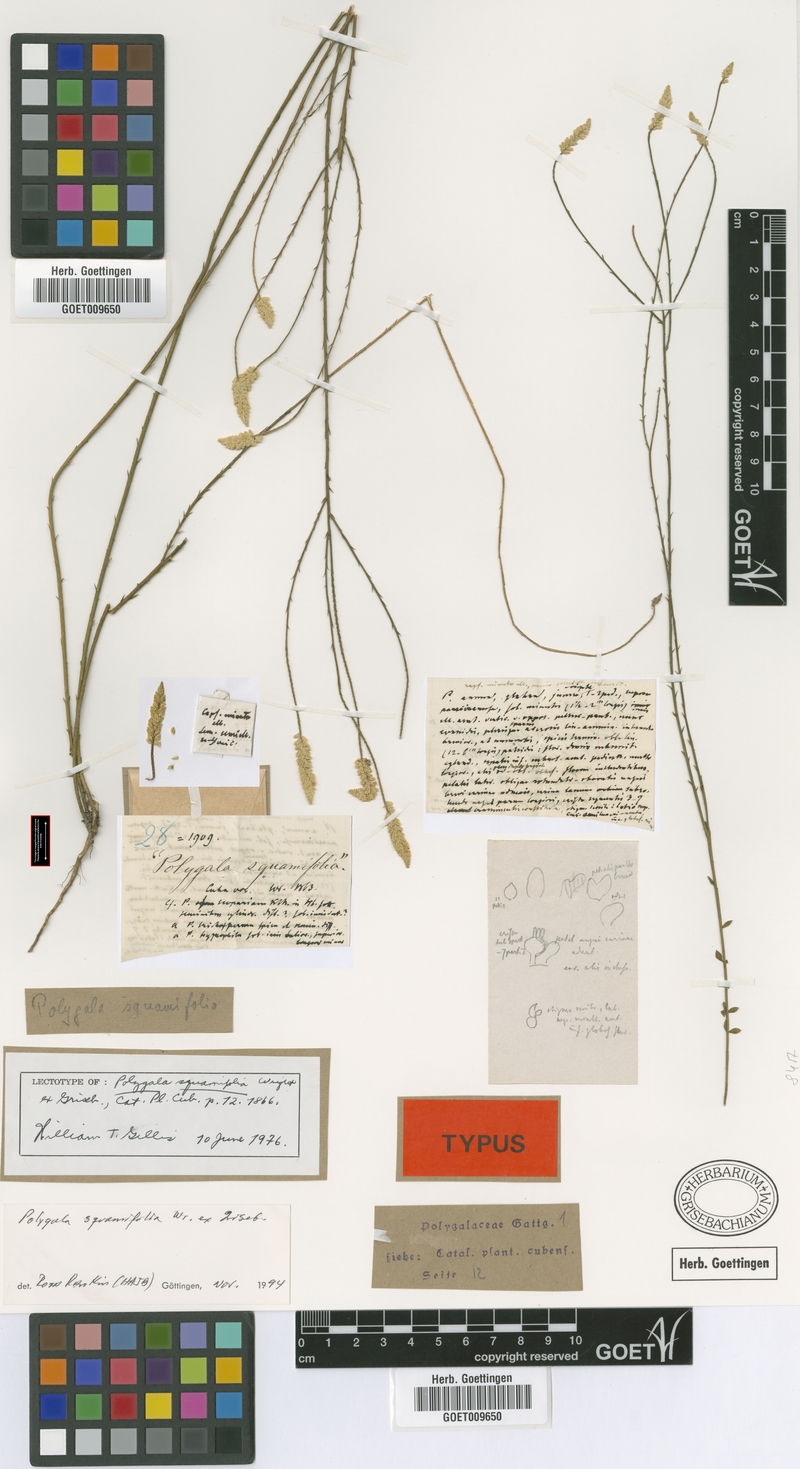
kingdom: Plantae
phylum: Tracheophyta
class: Magnoliopsida
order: Fabales
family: Polygalaceae
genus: Polygala
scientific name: Polygala squamifolia
